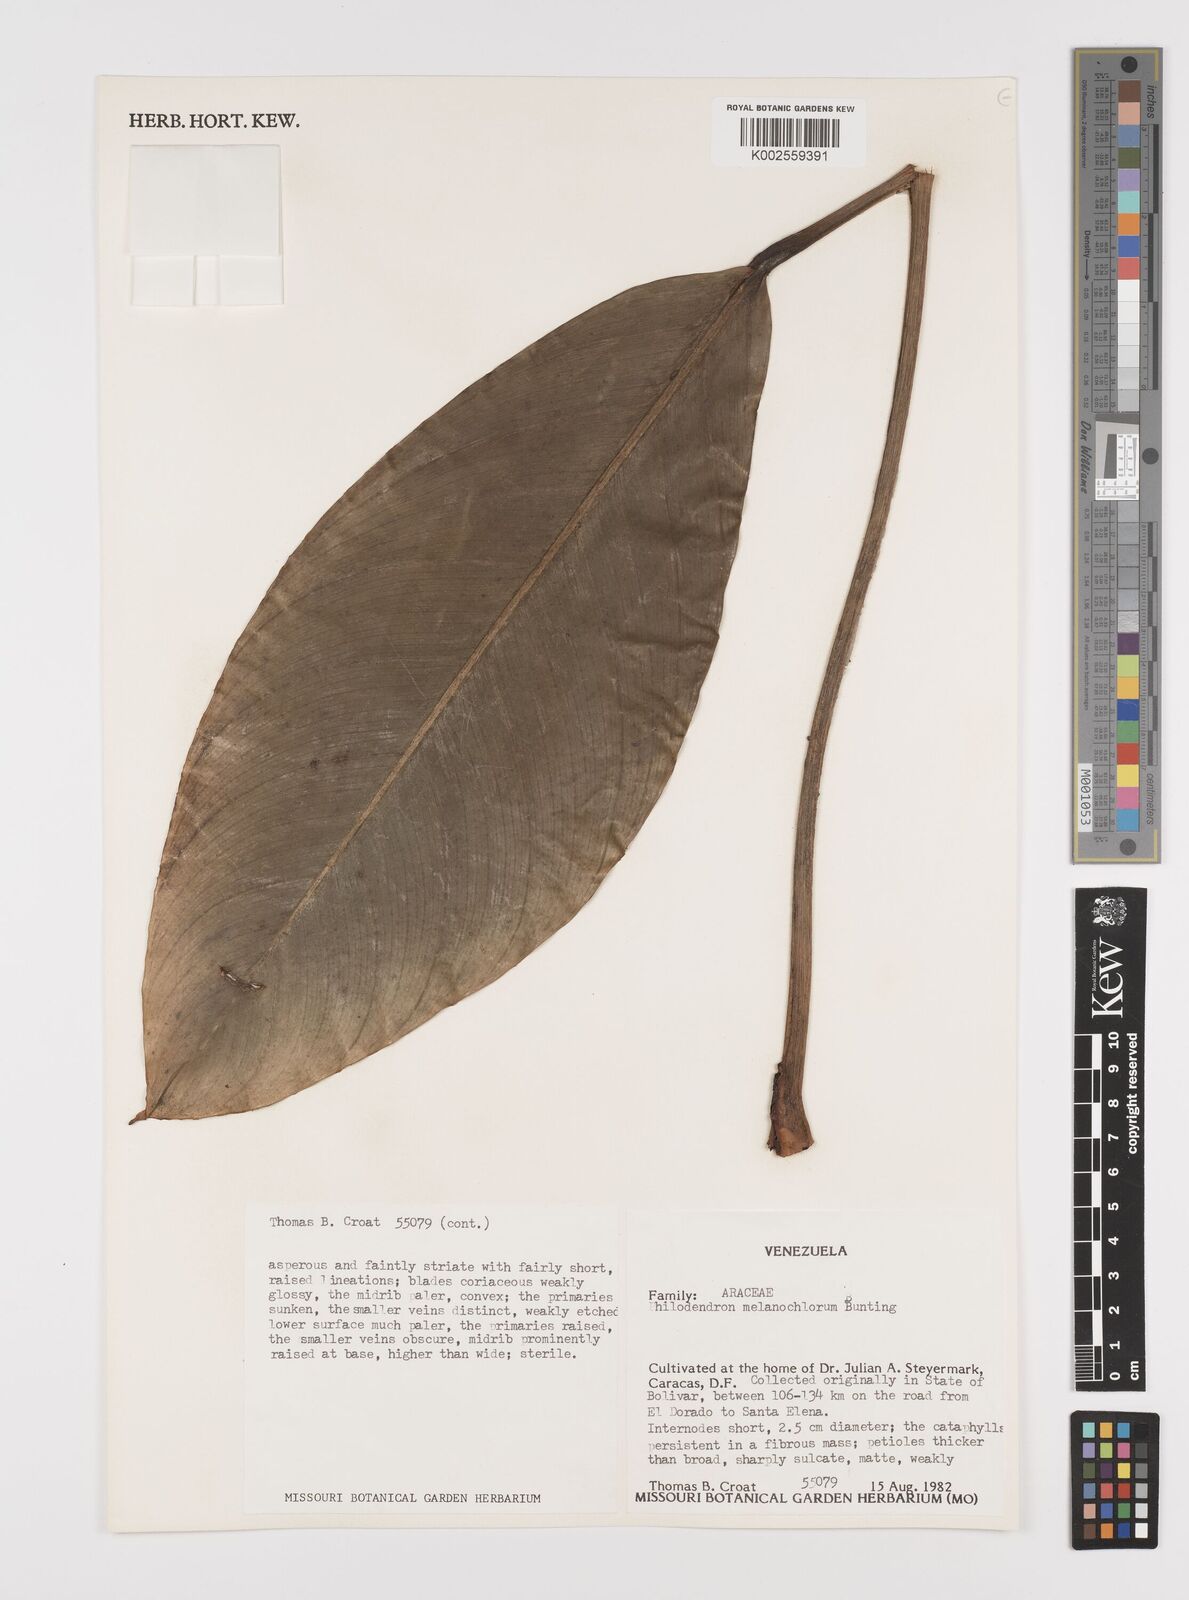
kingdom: Plantae
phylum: Tracheophyta
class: Liliopsida
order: Alismatales
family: Araceae
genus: Philodendron
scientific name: Philodendron tatei
